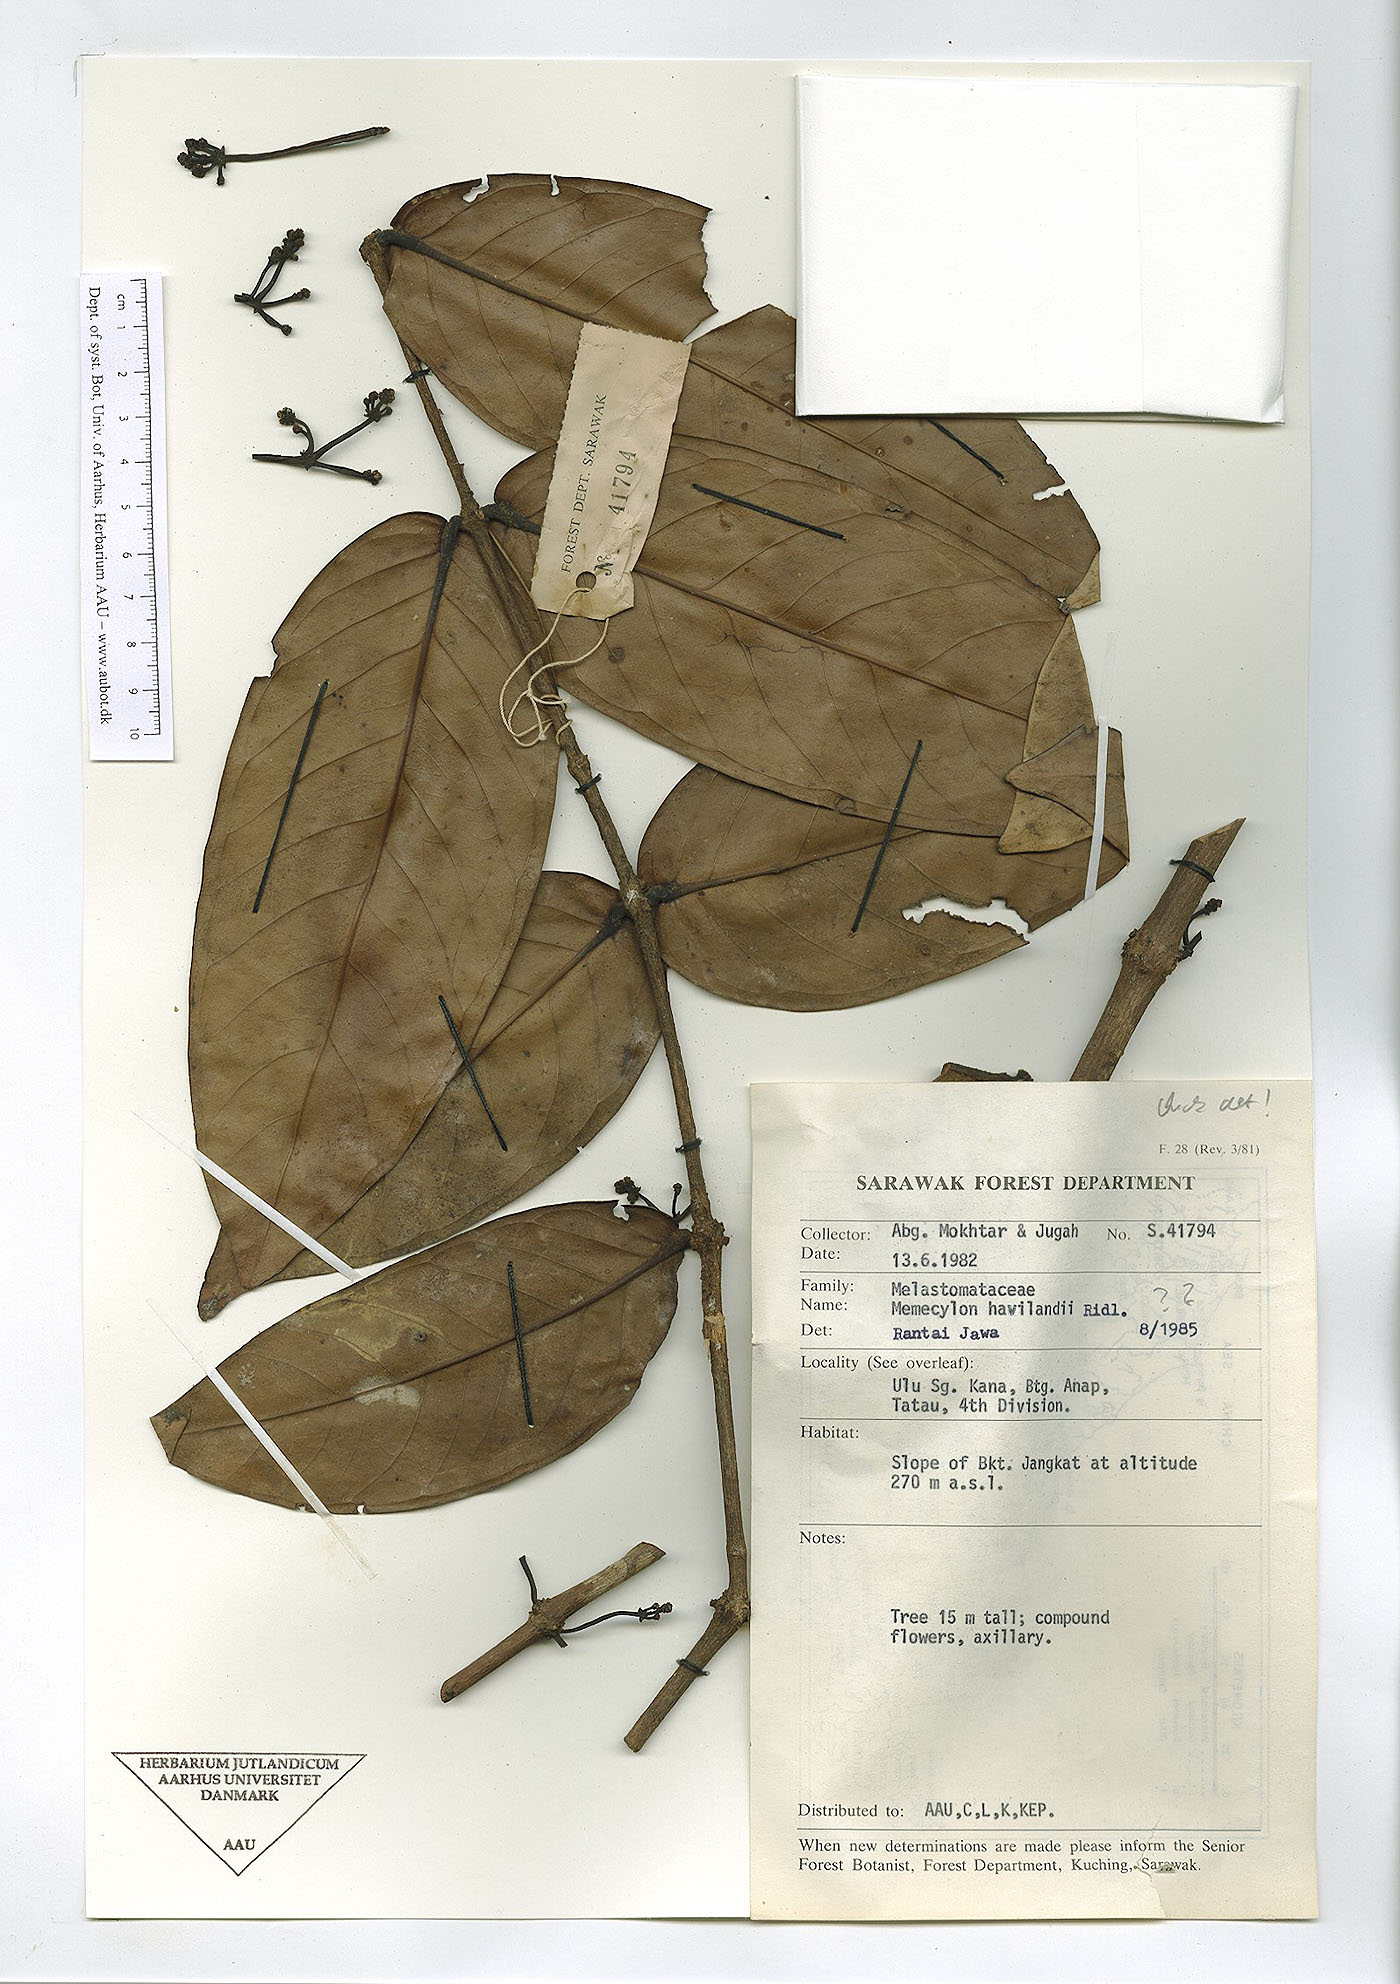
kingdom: Plantae
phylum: Tracheophyta
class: Magnoliopsida
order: Myrtales
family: Melastomataceae
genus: Memecylon
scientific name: Memecylon longifolium
